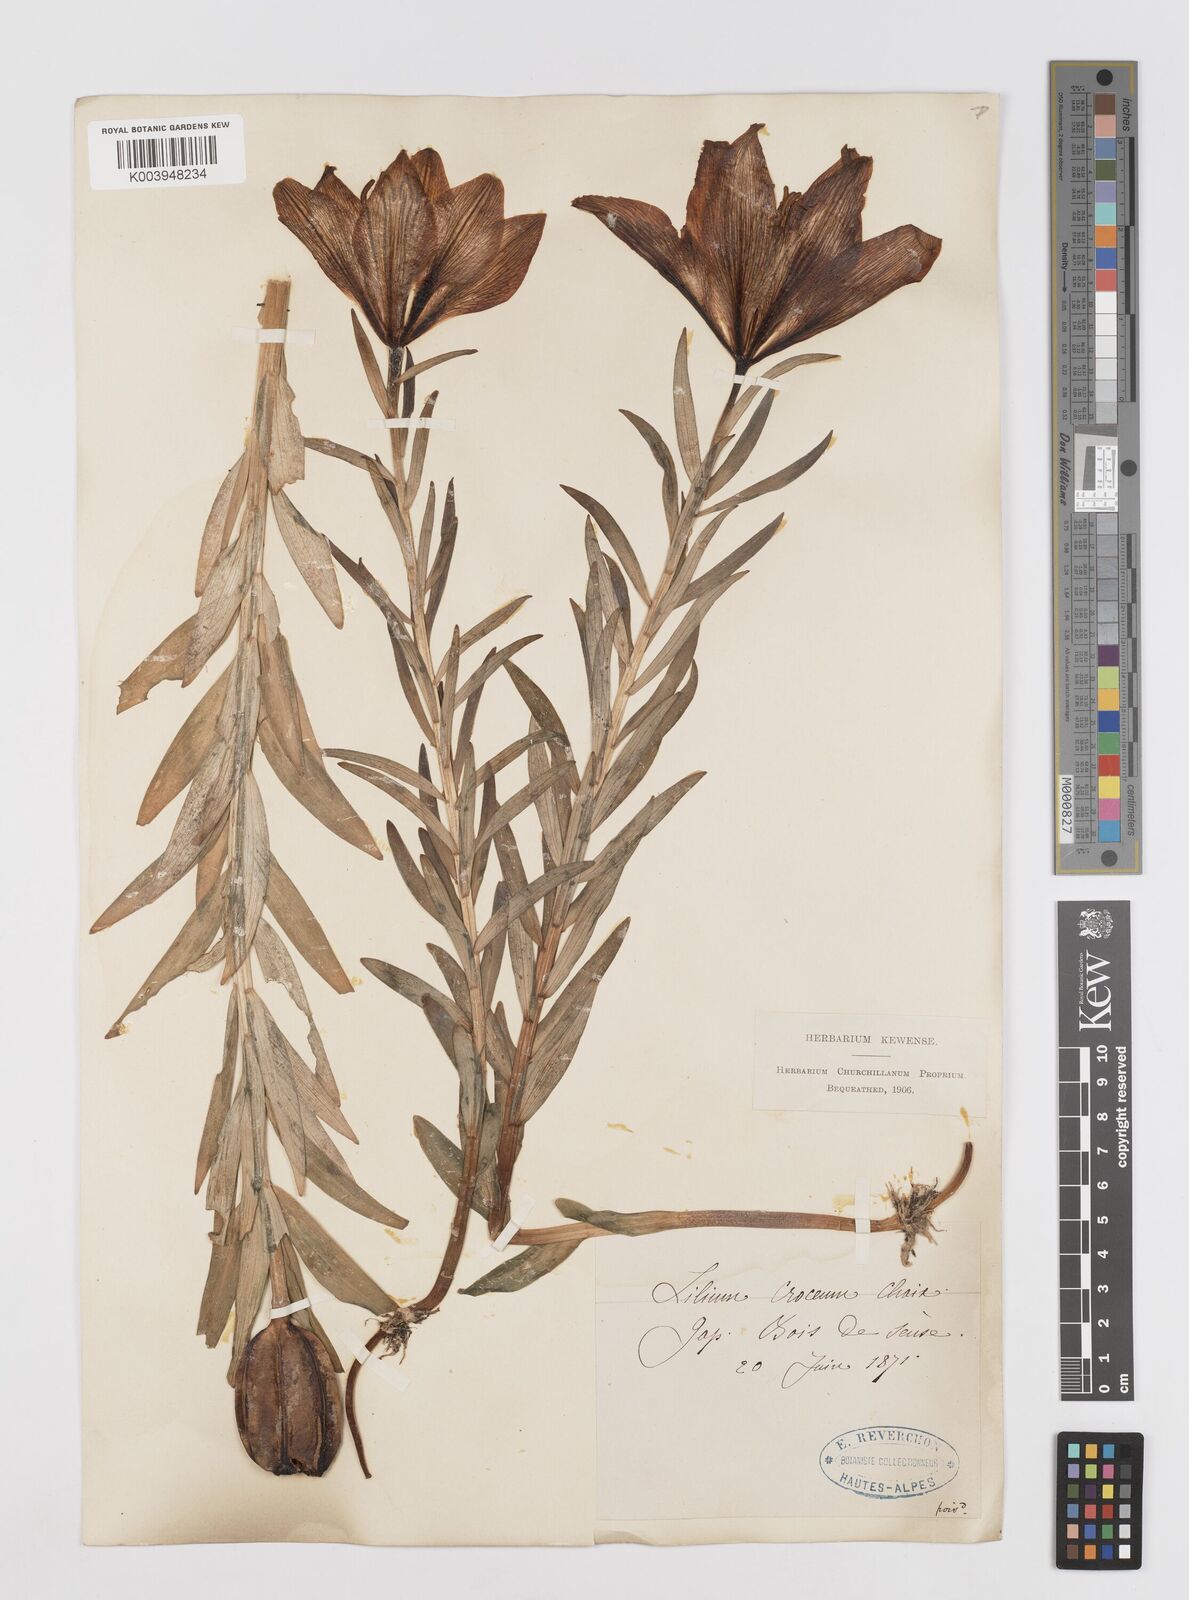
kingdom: Plantae
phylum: Tracheophyta
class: Liliopsida
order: Liliales
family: Liliaceae
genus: Lilium
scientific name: Lilium bulbiferum
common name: Orange lily
